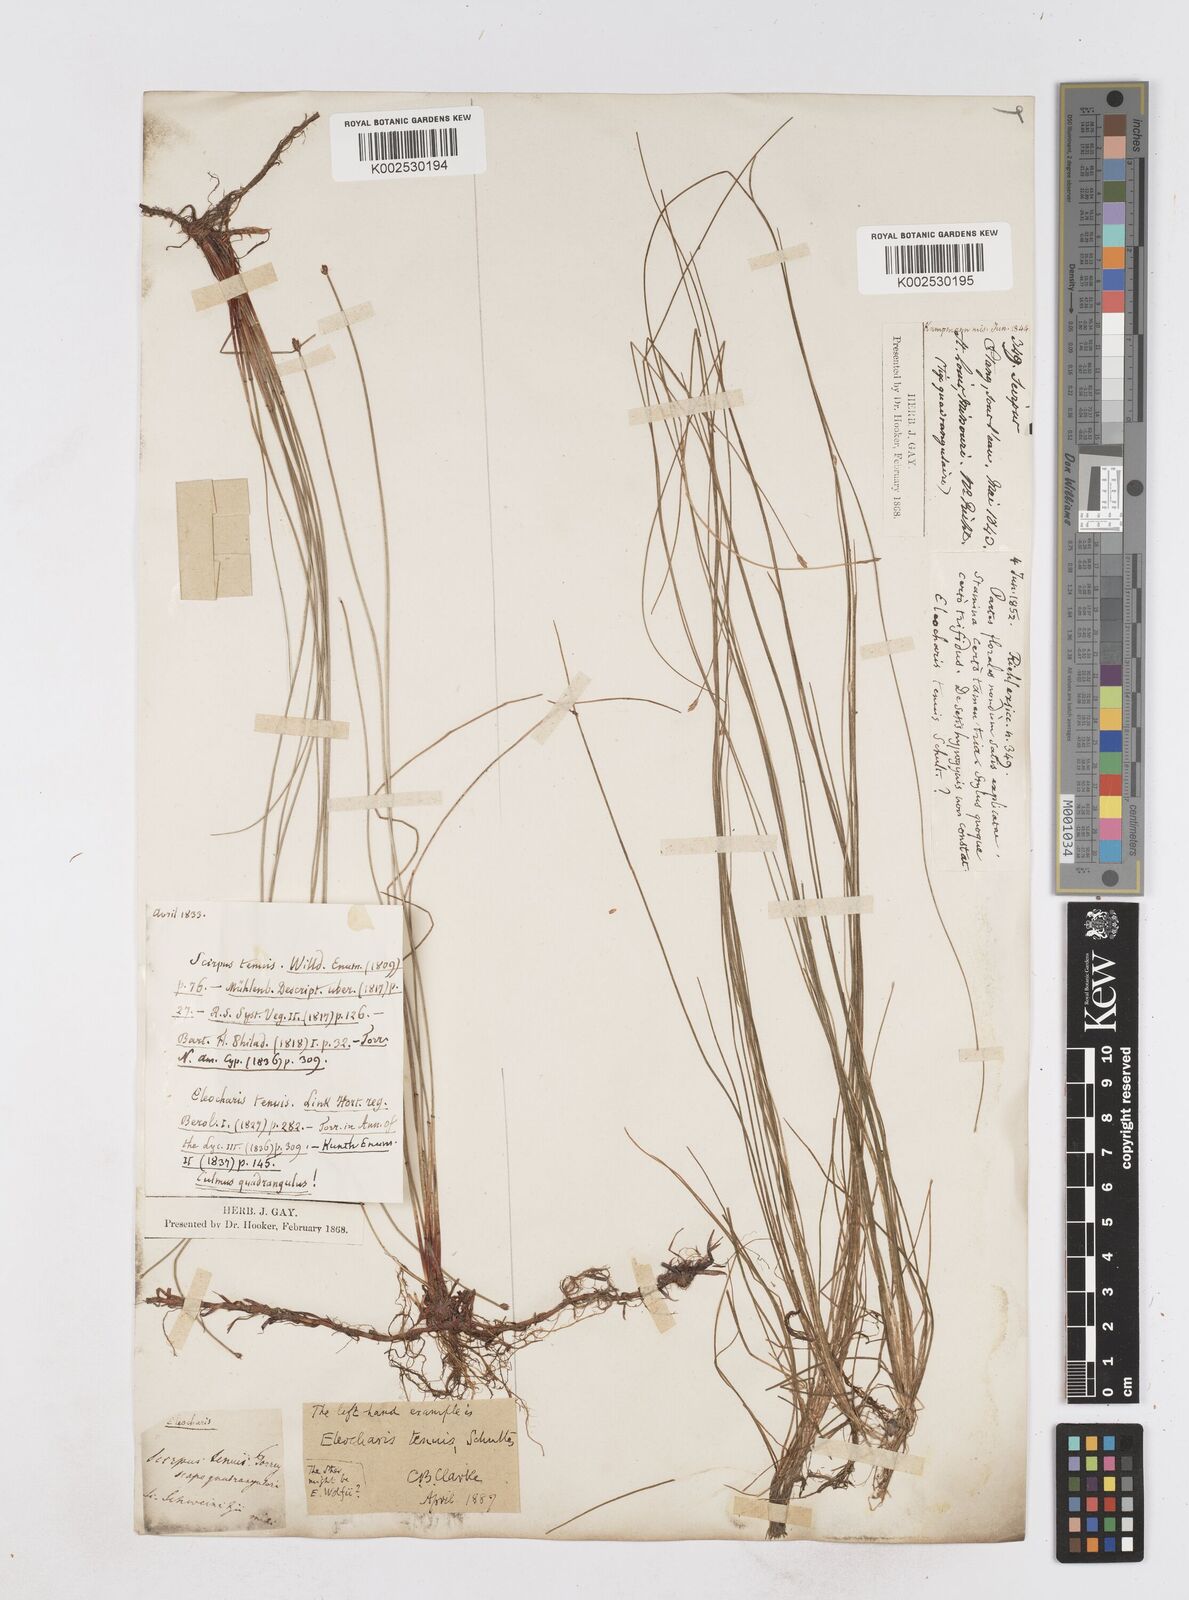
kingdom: Plantae
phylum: Tracheophyta
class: Liliopsida
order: Poales
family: Cyperaceae
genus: Eleocharis
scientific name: Eleocharis tenuis
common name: Dog's hair
